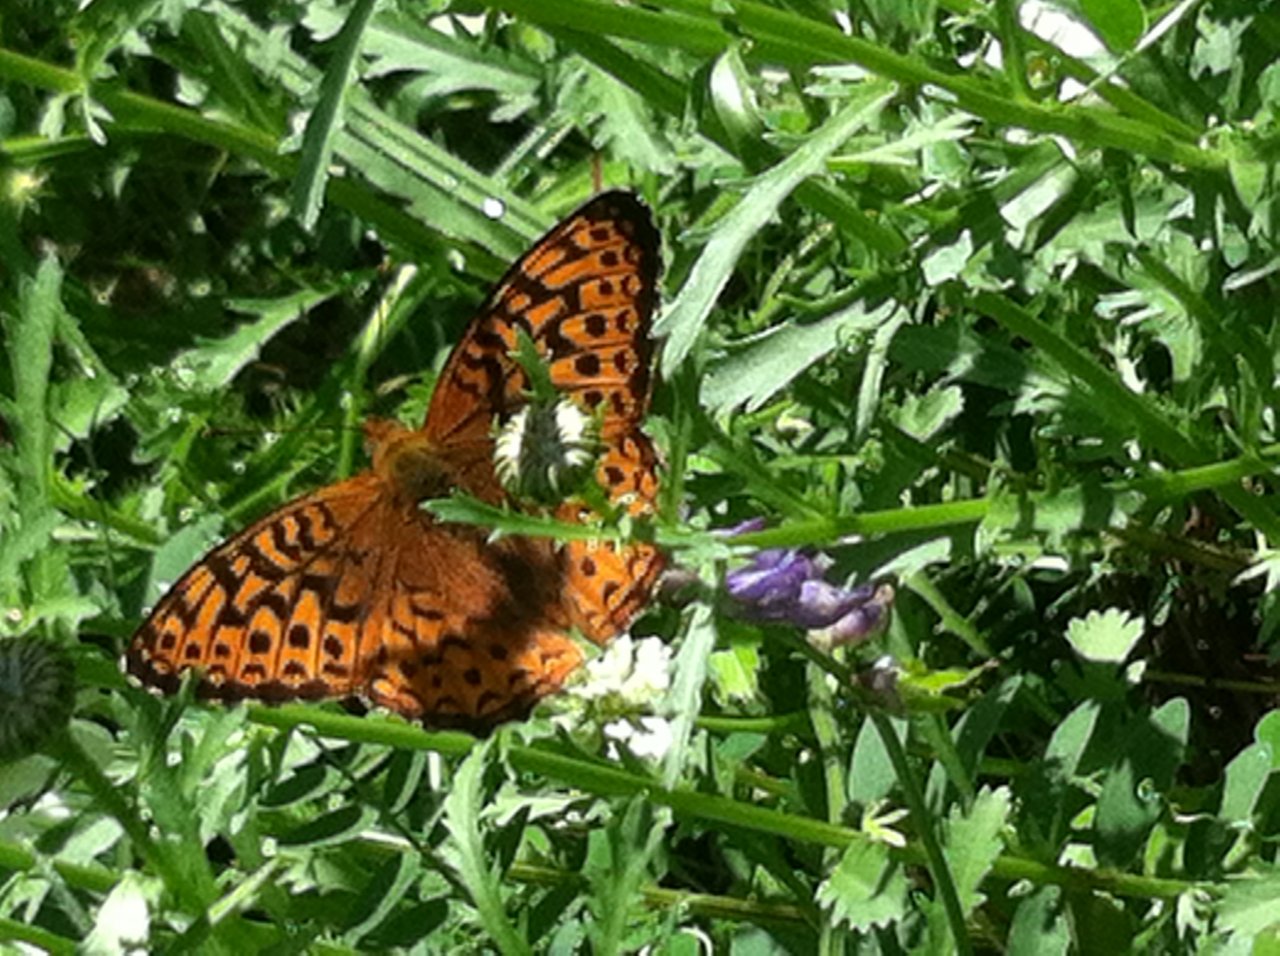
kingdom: Animalia
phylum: Arthropoda
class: Insecta
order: Lepidoptera
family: Nymphalidae
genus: Speyeria
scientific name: Speyeria atlantis
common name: Atlantis Fritillary
